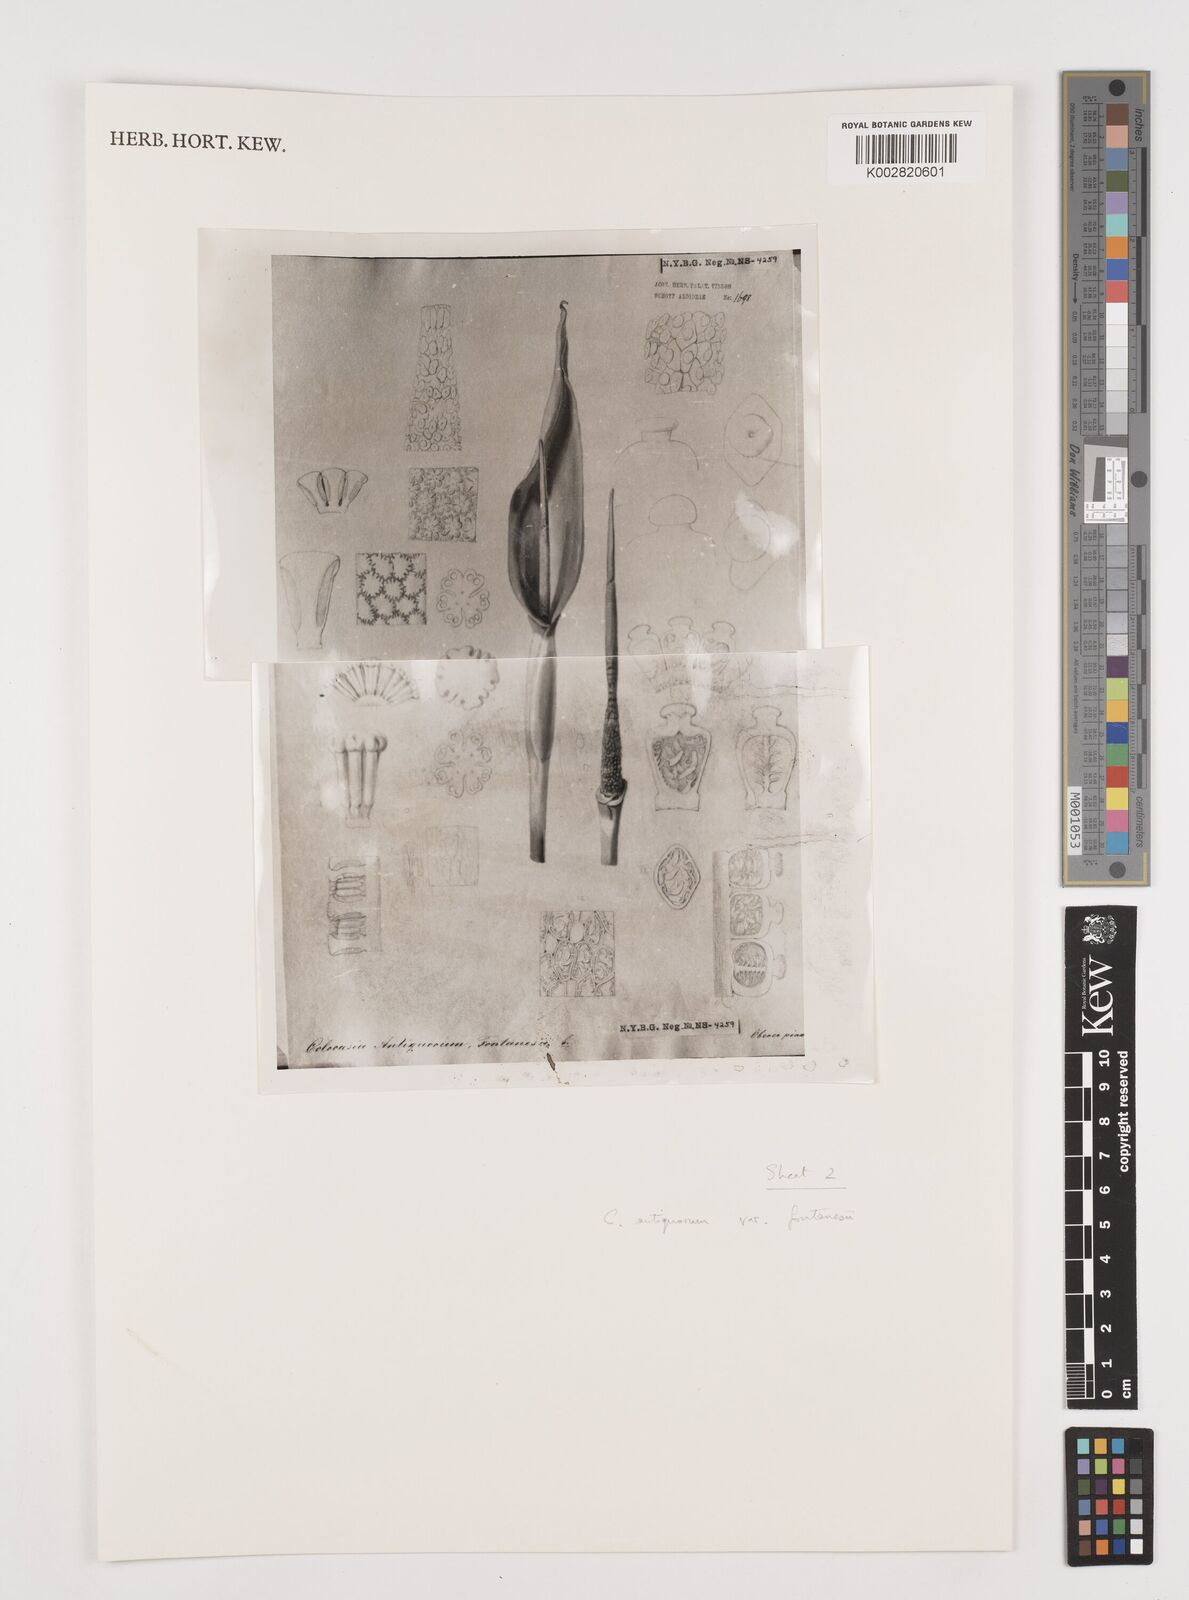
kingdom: Plantae
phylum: Tracheophyta
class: Liliopsida
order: Alismatales
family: Araceae
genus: Colocasia
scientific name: Colocasia esculenta
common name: Taro
